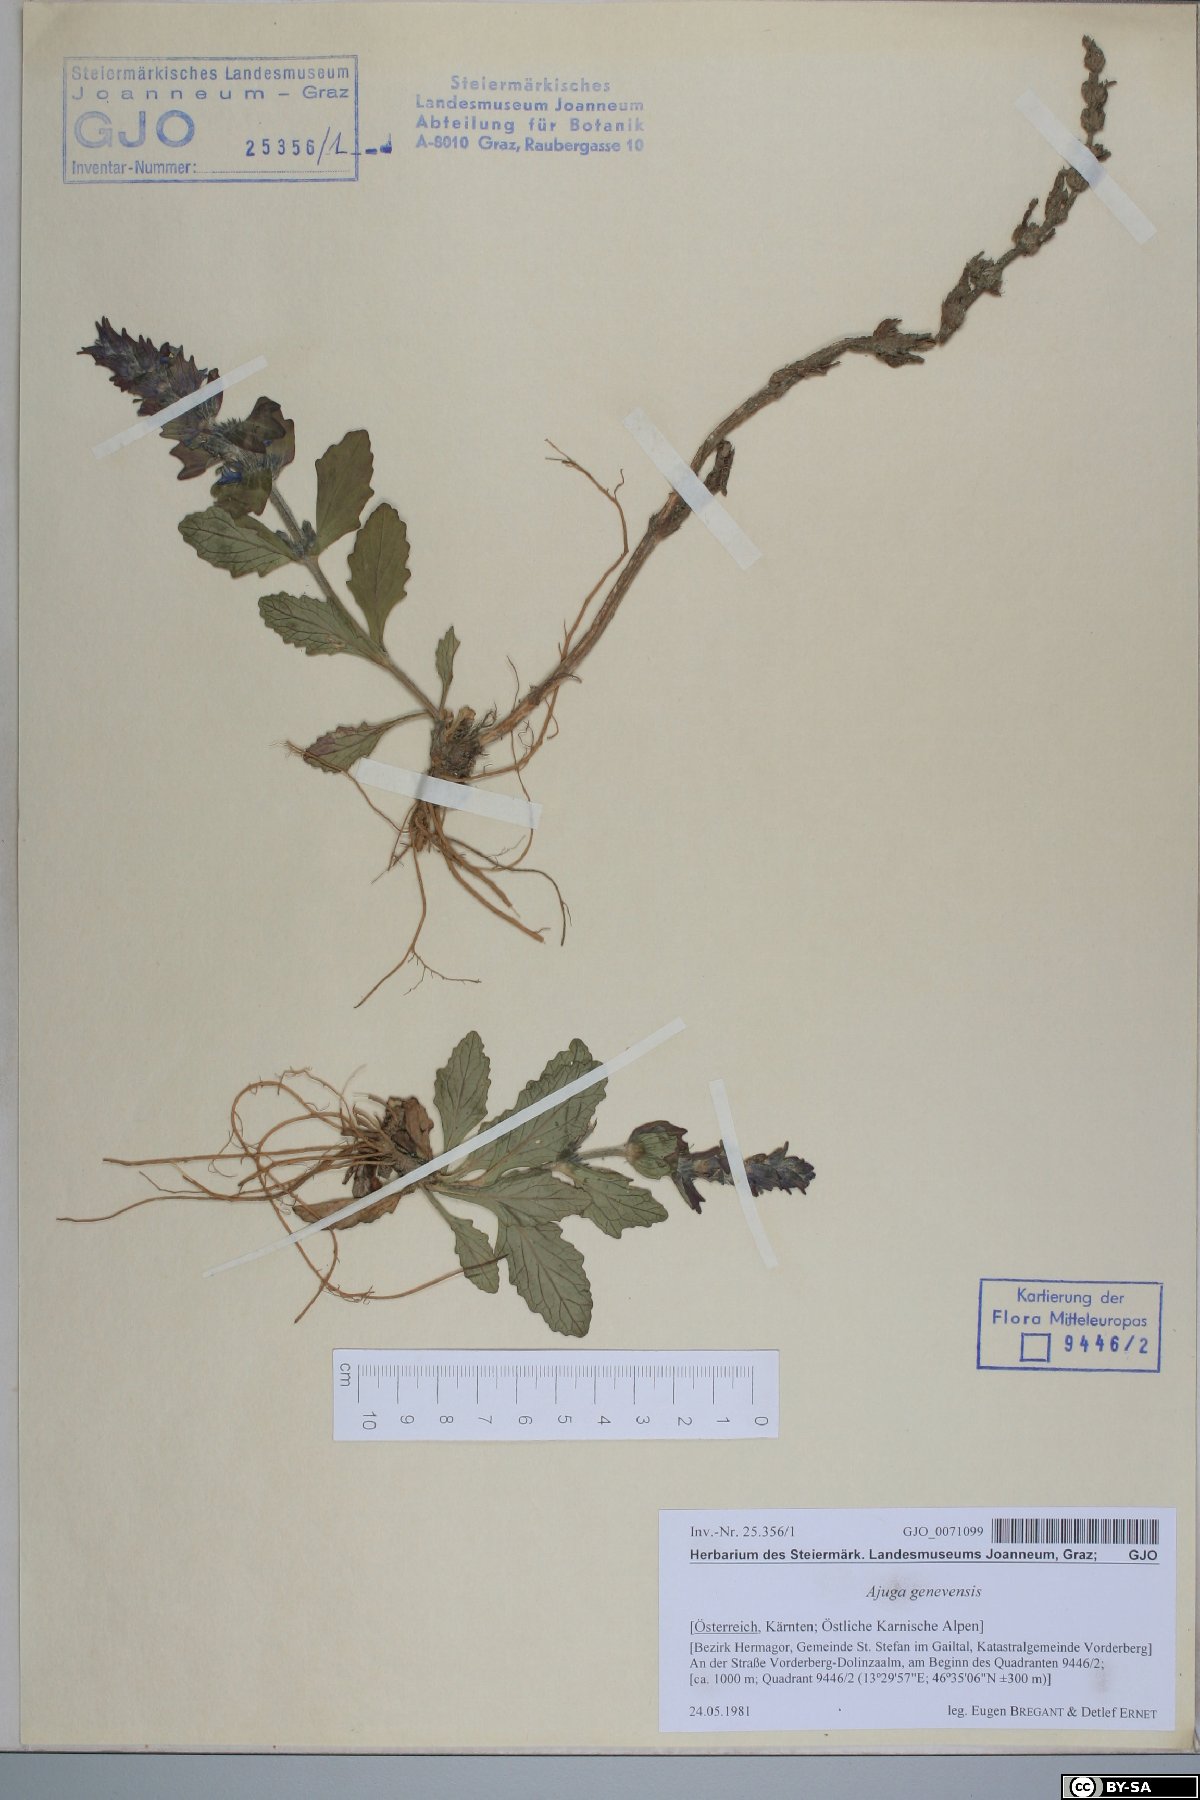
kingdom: Plantae
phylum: Tracheophyta
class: Magnoliopsida
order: Lamiales
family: Lamiaceae
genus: Ajuga
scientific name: Ajuga genevensis
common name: Blue bugle
